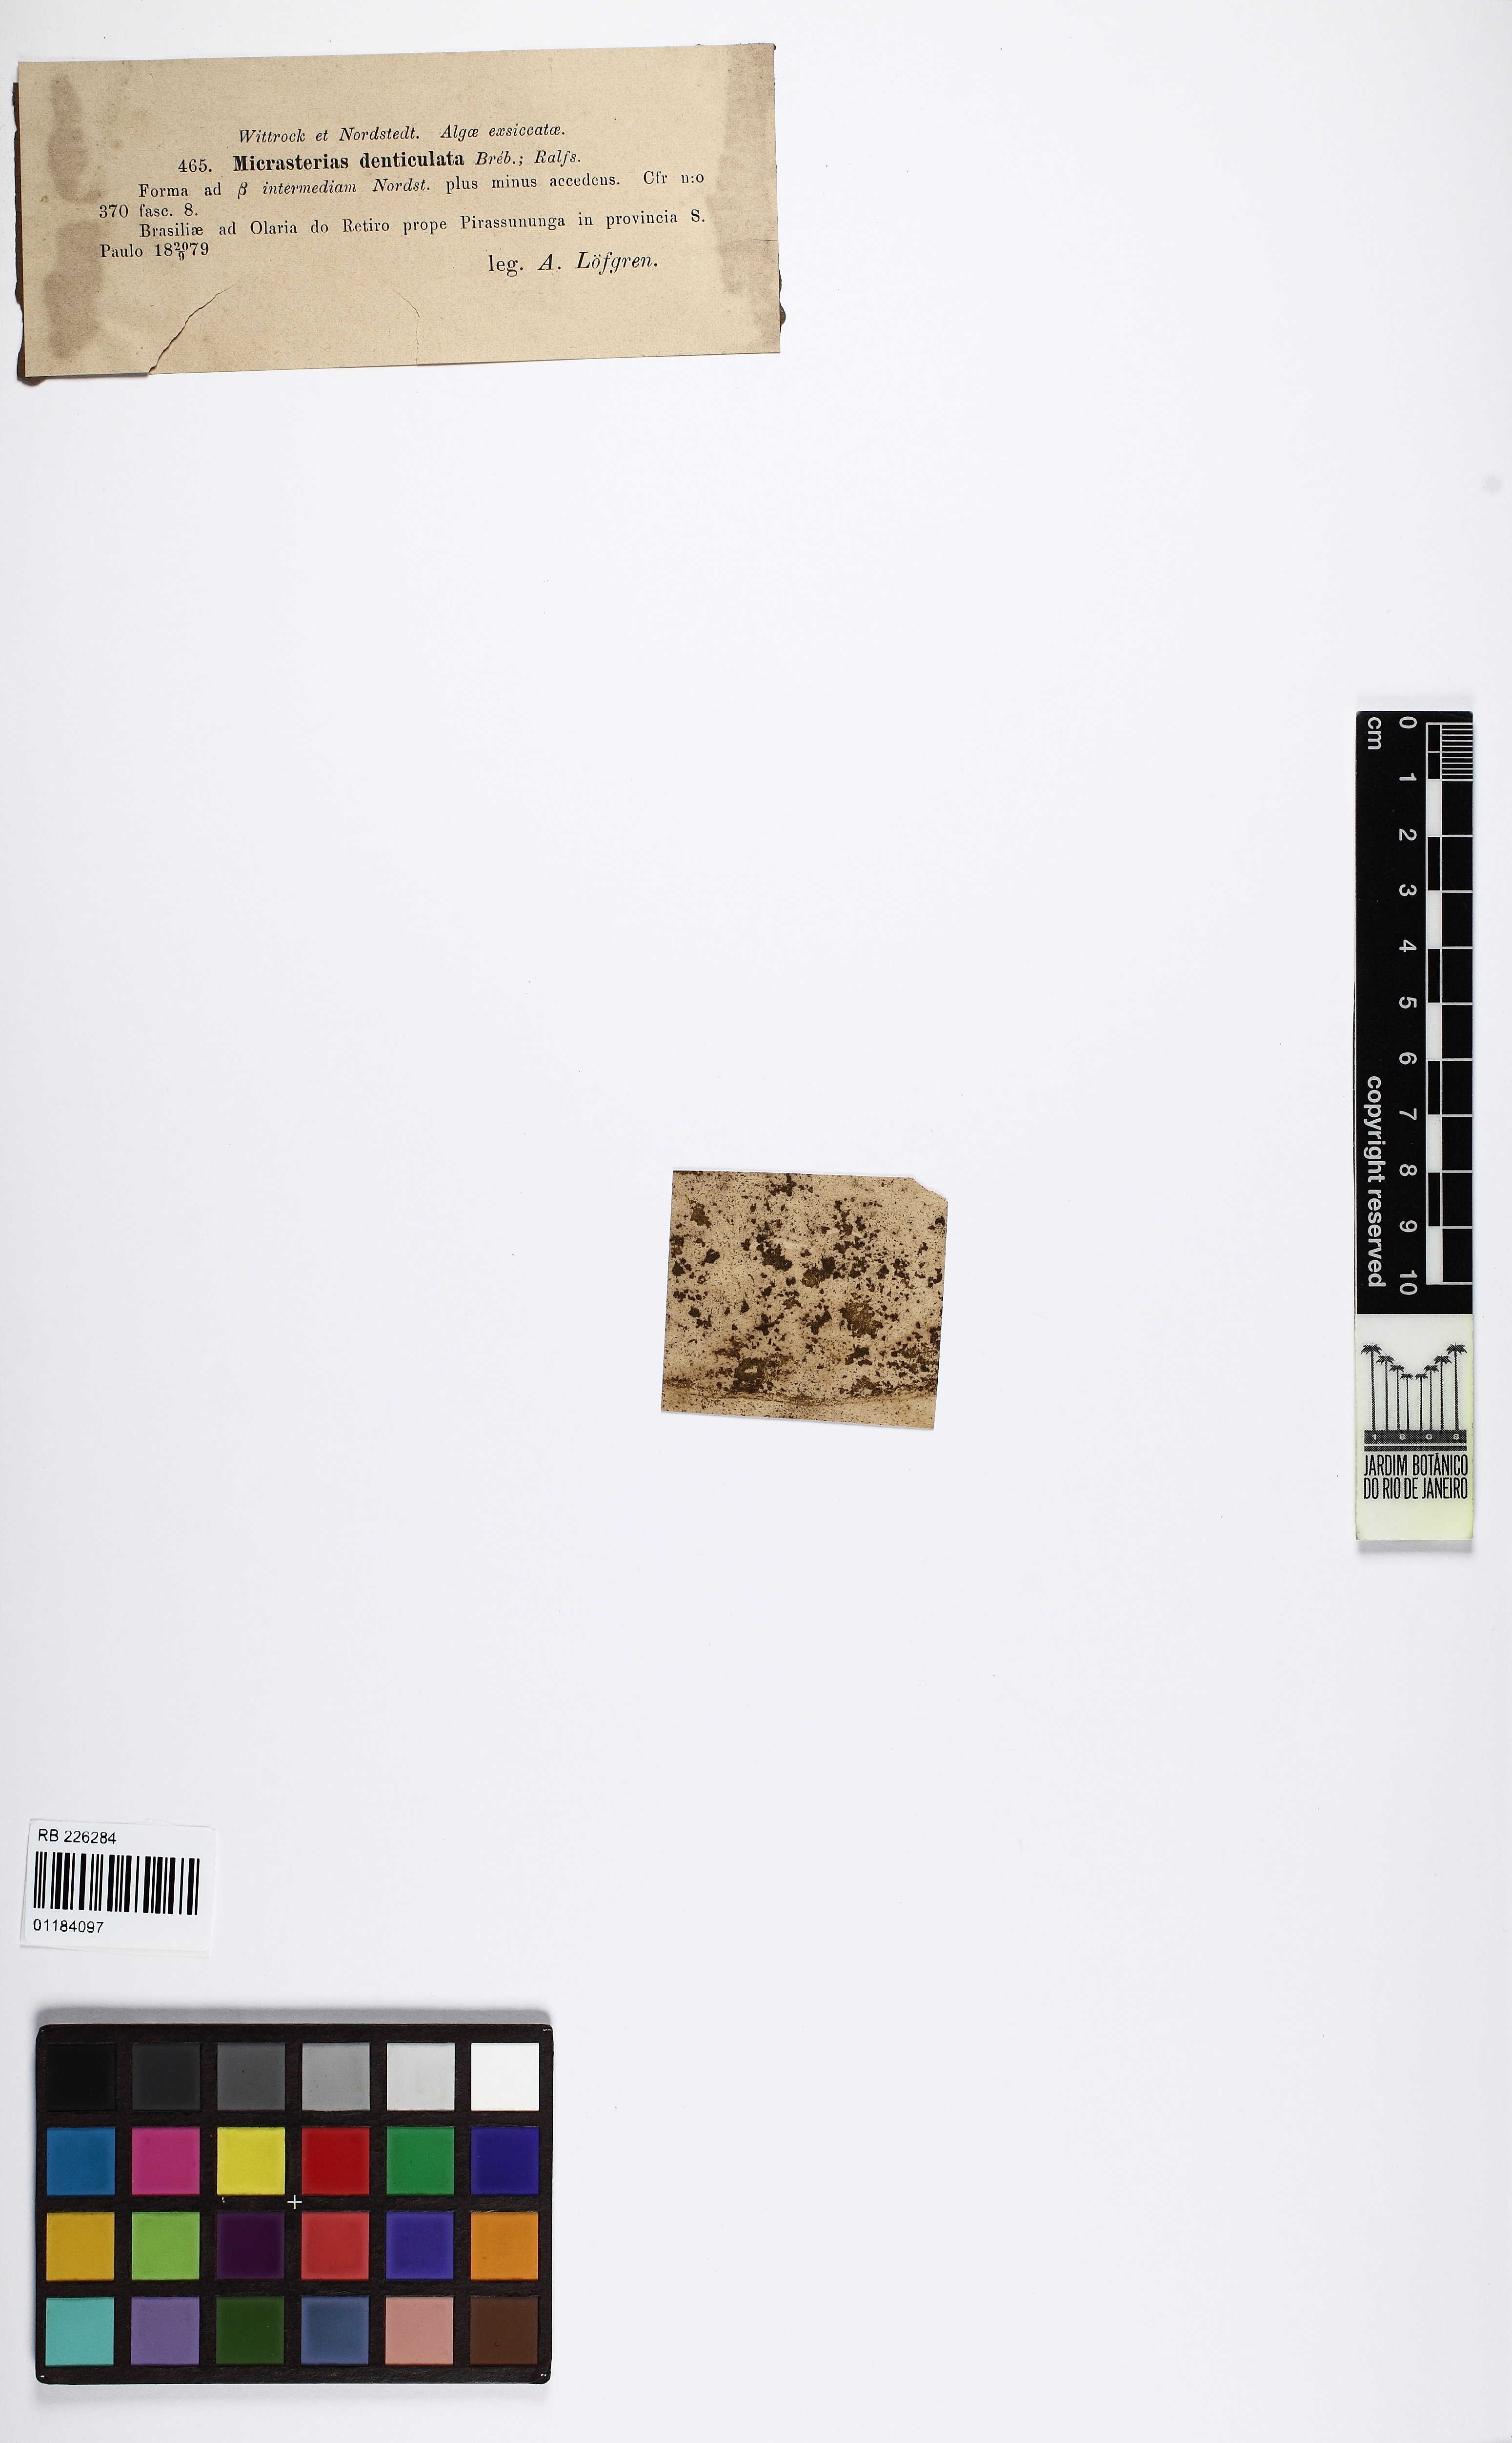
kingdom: Plantae
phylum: Charophyta
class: Conjugatophyceae
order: Desmidiales
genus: Micrasterias
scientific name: Micrasterias denticulata
